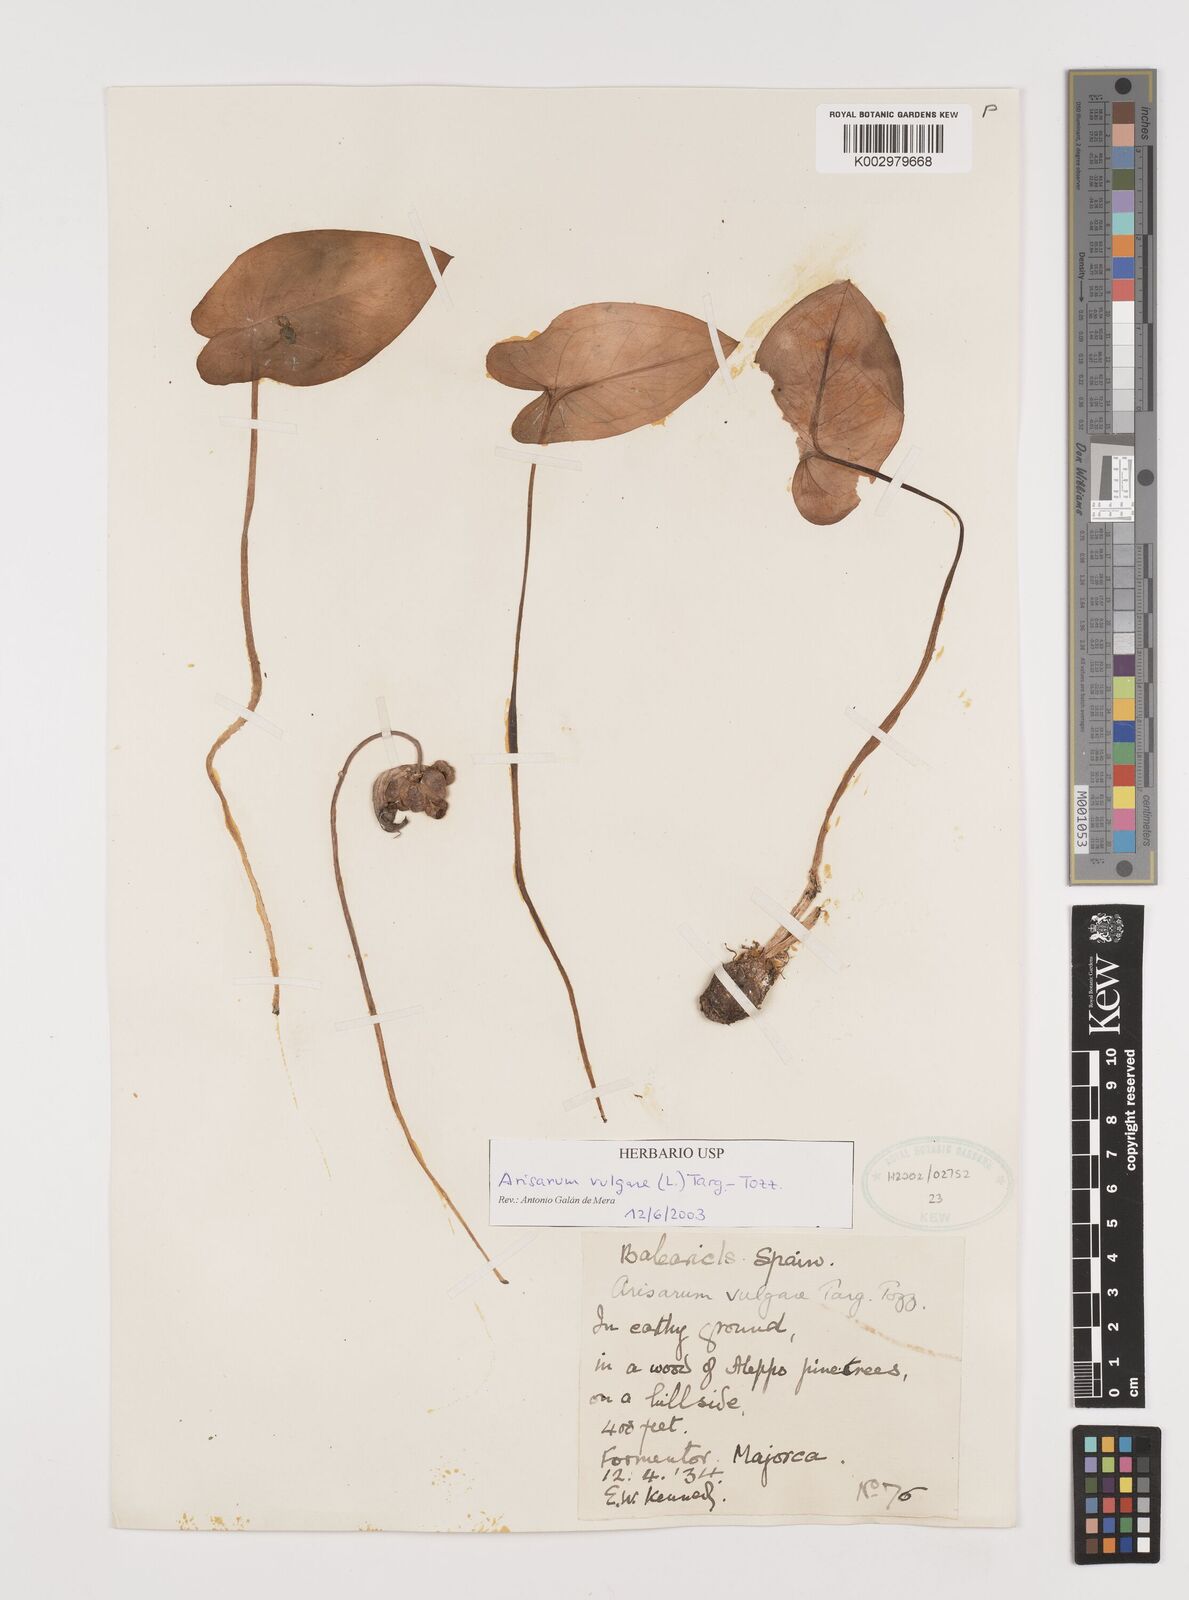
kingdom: Plantae
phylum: Tracheophyta
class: Liliopsida
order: Alismatales
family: Araceae
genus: Arisarum
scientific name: Arisarum vulgare
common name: Common arisarum
